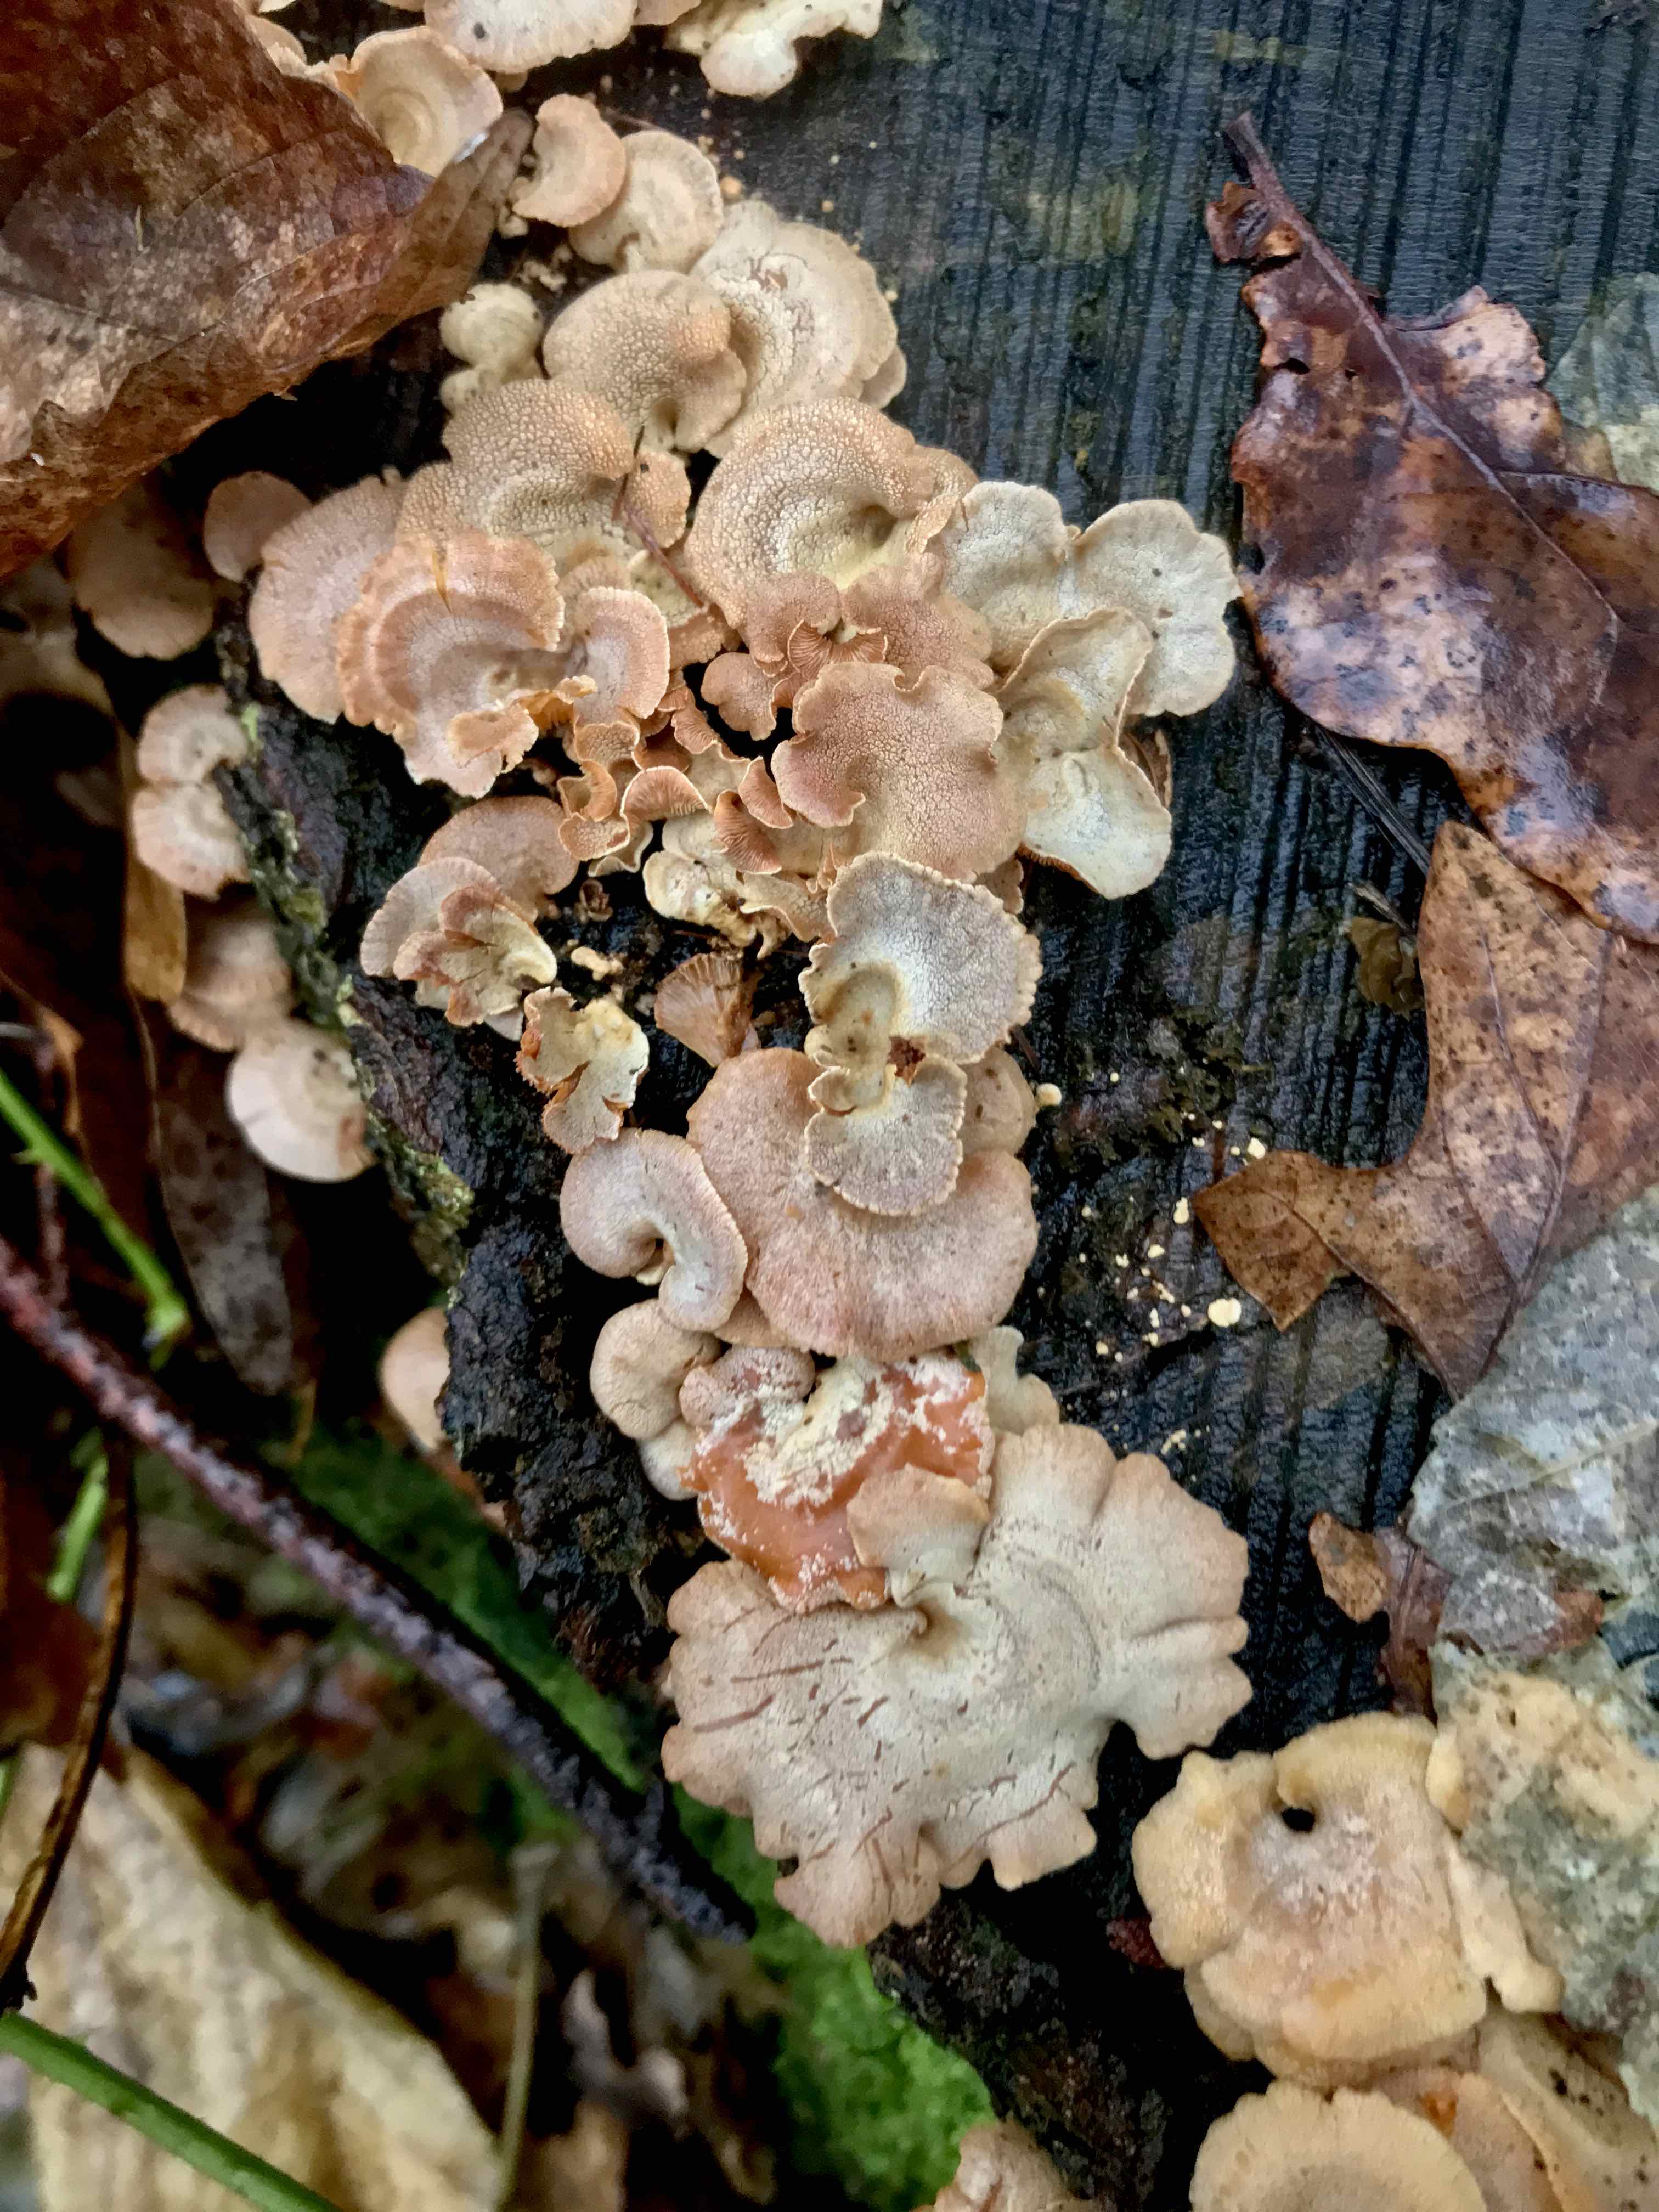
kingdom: Fungi
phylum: Basidiomycota
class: Agaricomycetes
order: Agaricales
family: Mycenaceae
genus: Panellus
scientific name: Panellus stipticus
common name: kliddet epaulethat
